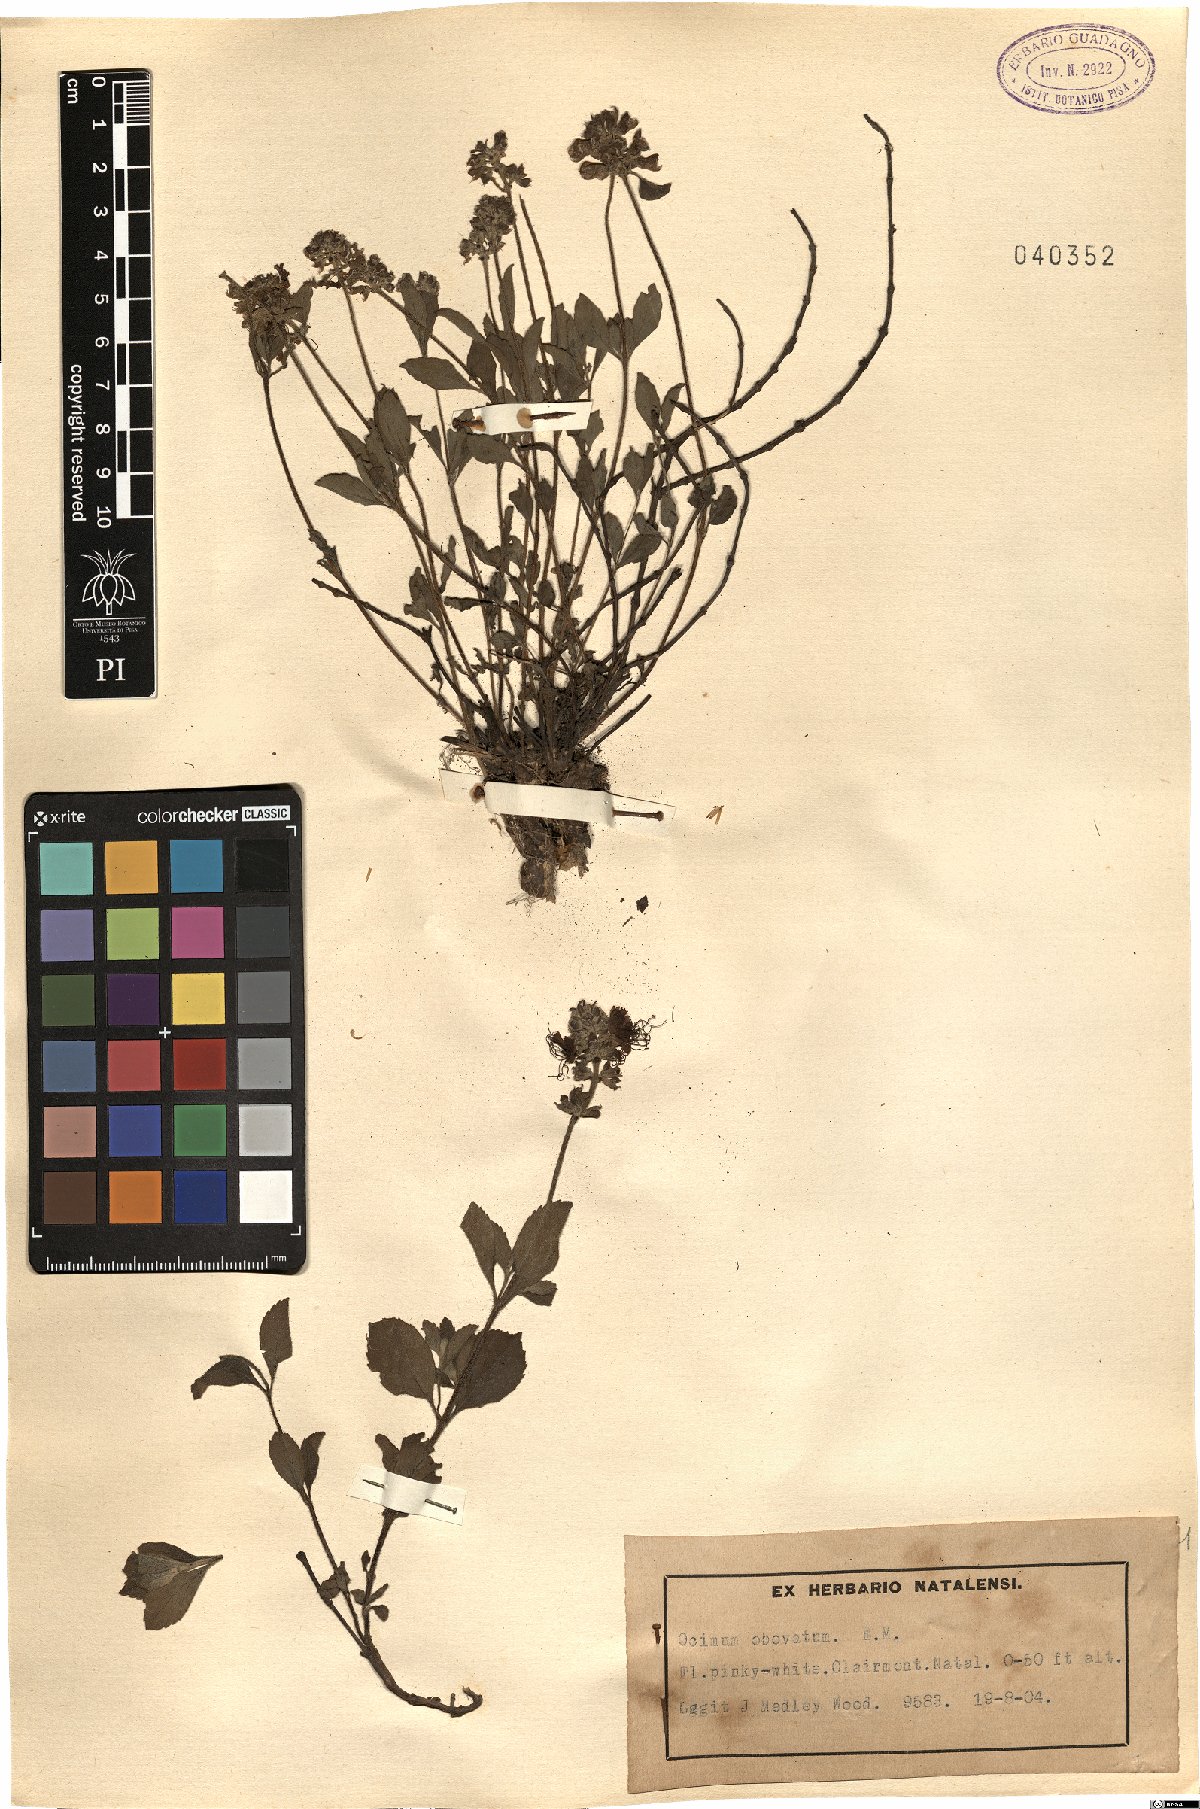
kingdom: Plantae
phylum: Tracheophyta
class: Magnoliopsida
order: Lamiales
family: Lamiaceae
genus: Ocimum
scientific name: Ocimum obovatum
